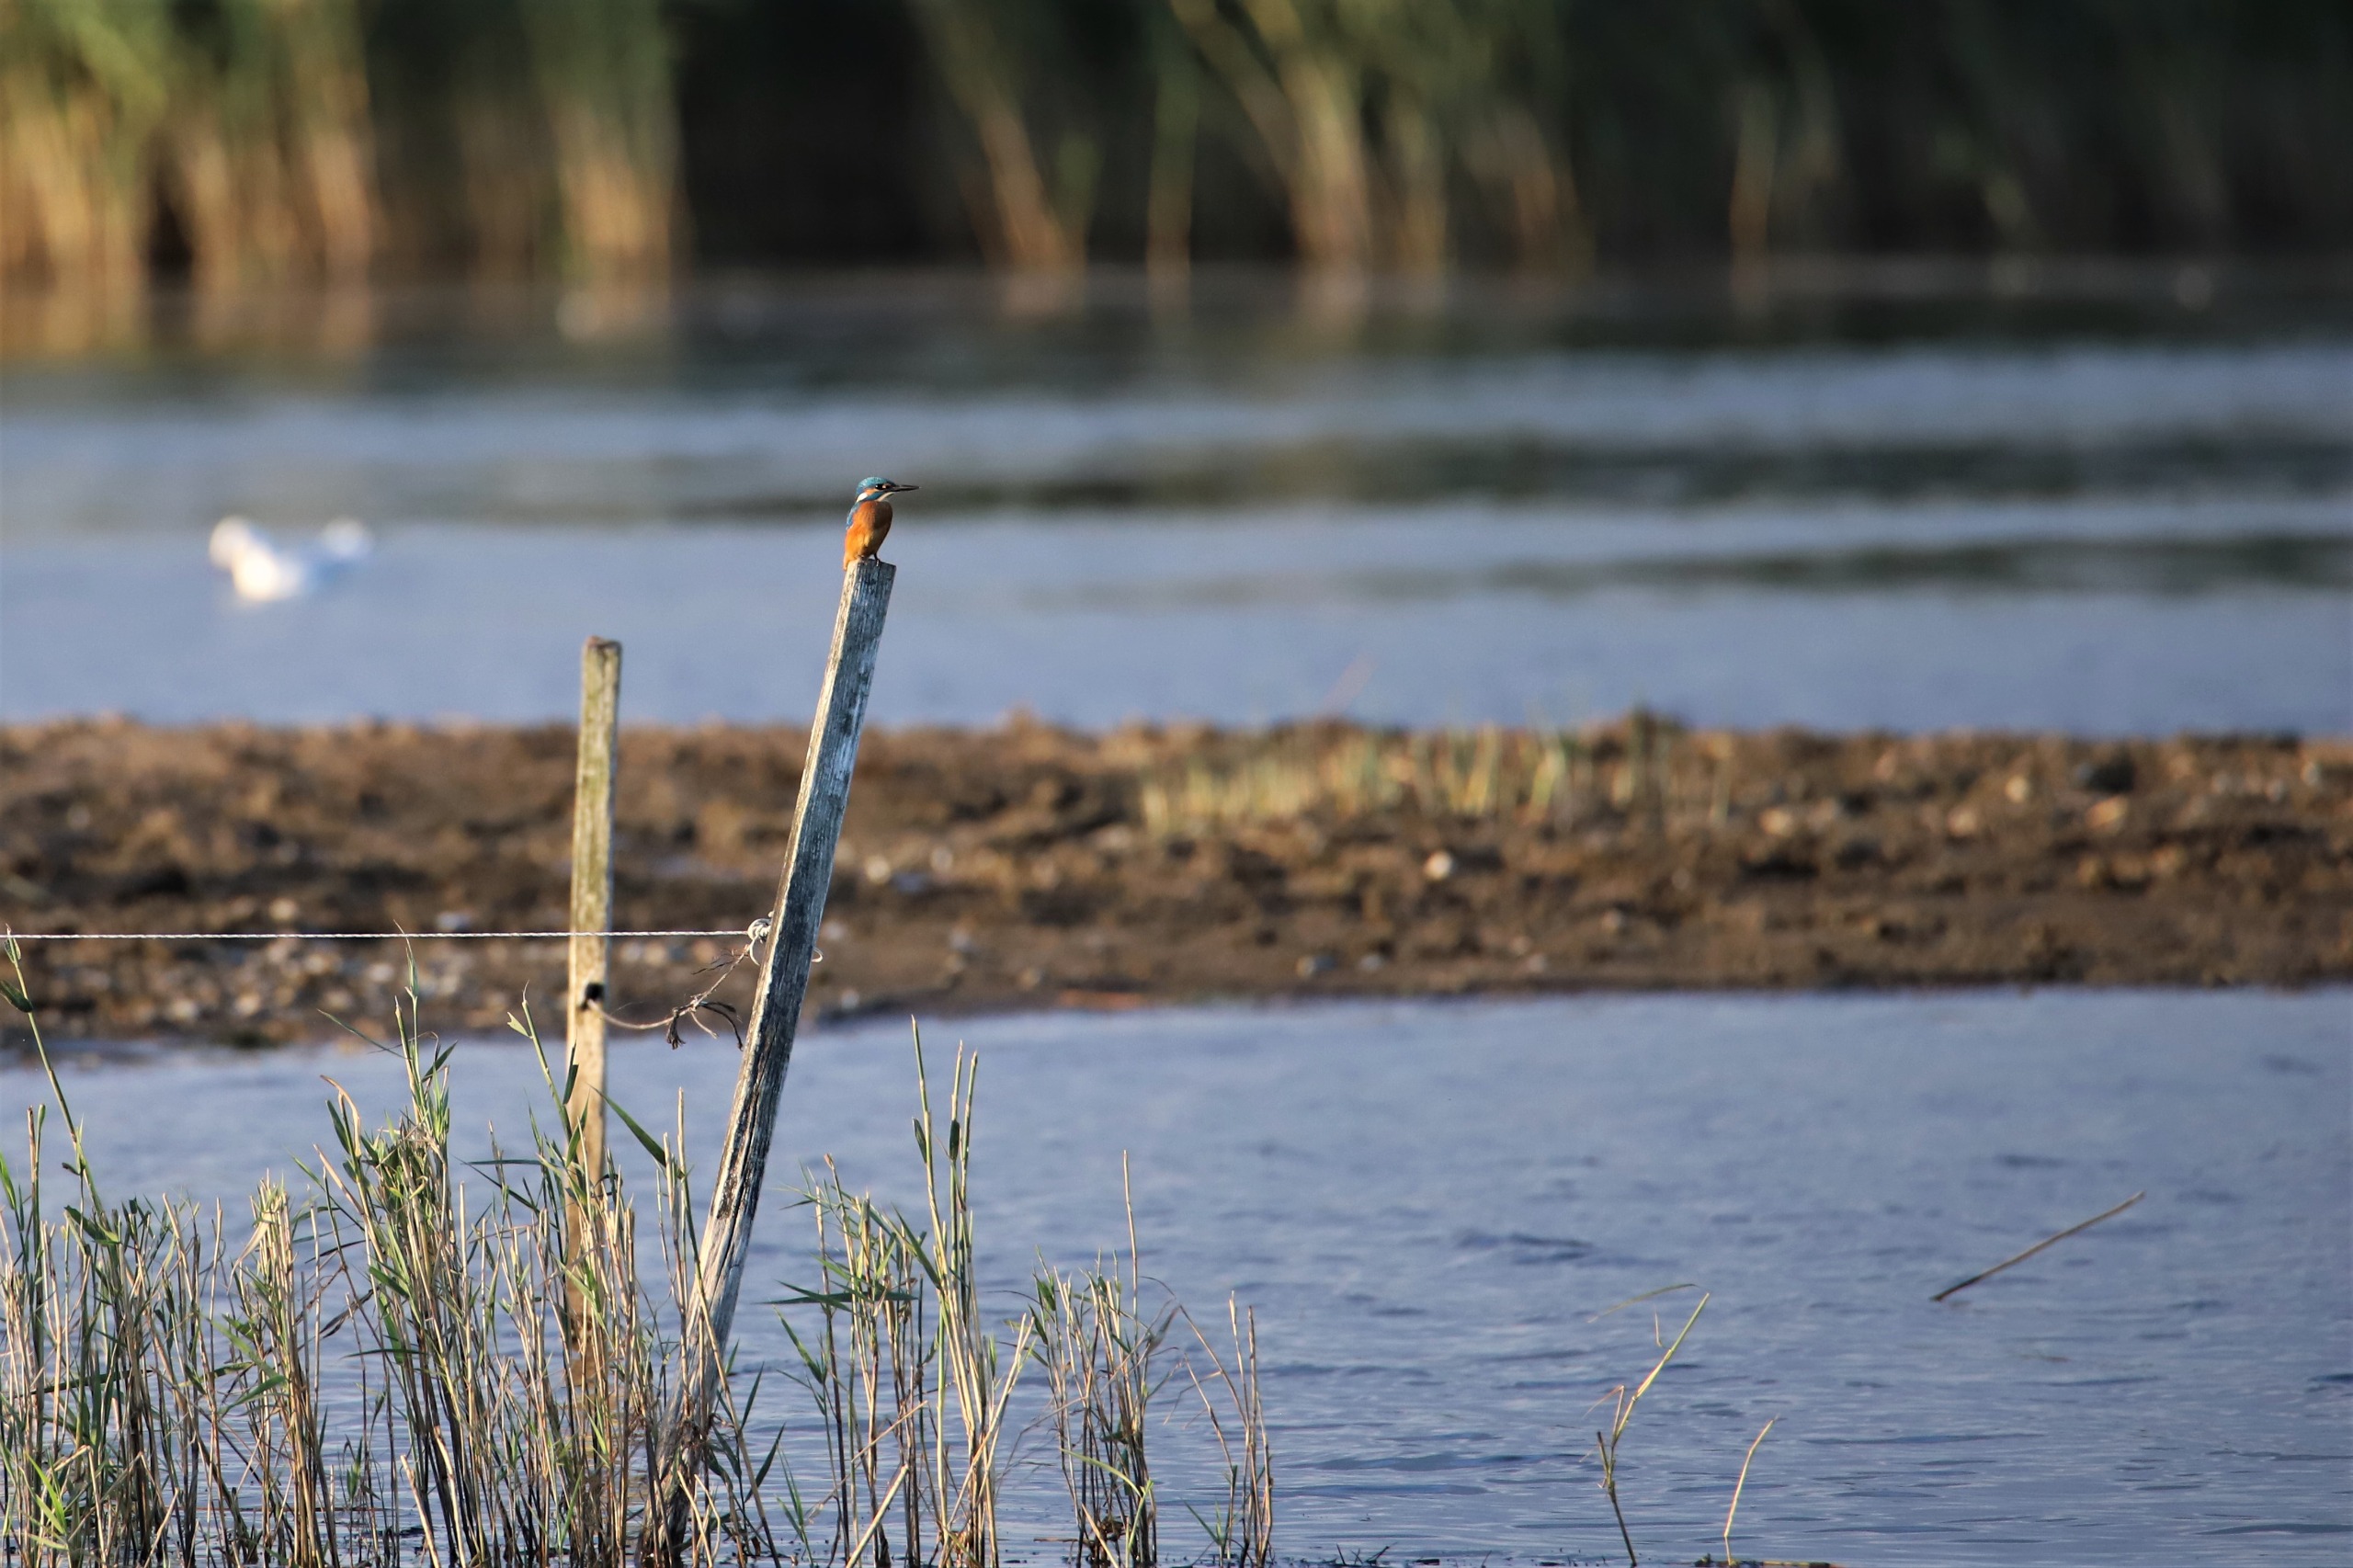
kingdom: Animalia
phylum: Chordata
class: Aves
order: Coraciiformes
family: Alcedinidae
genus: Alcedo
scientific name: Alcedo atthis
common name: Isfugl
